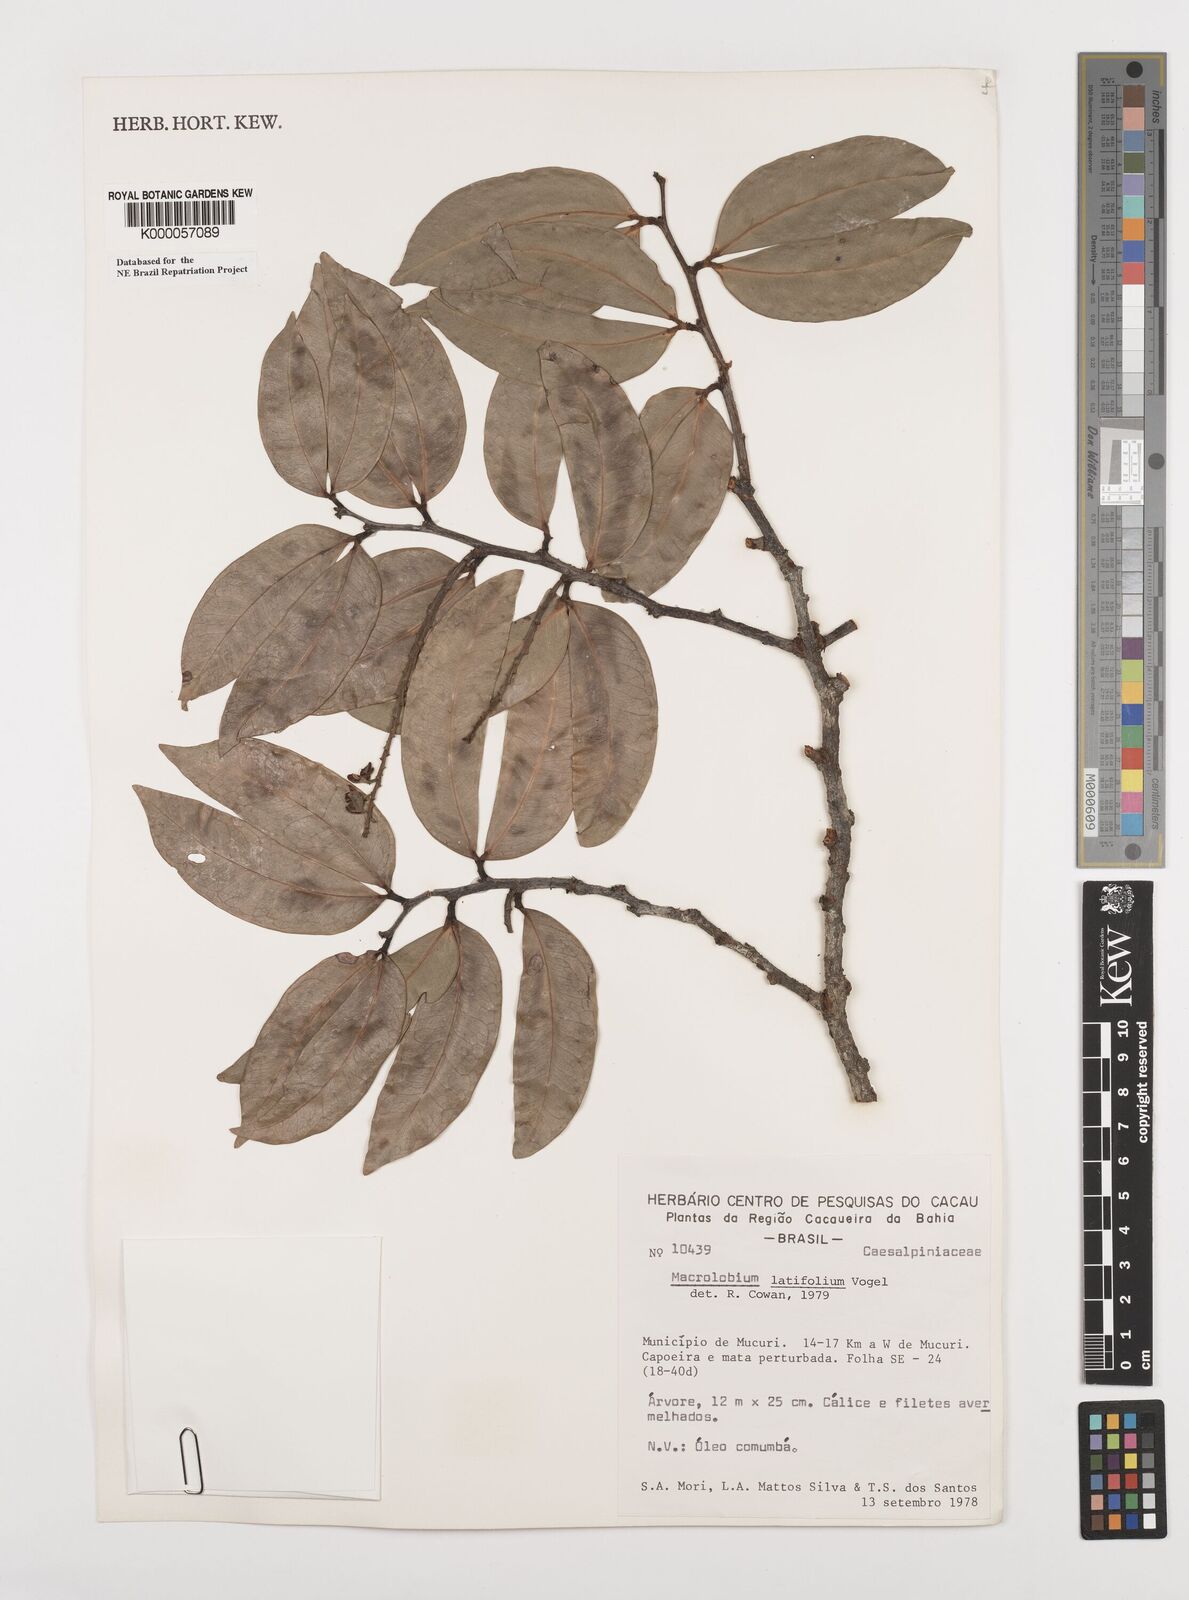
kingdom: Plantae
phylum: Tracheophyta
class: Magnoliopsida
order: Fabales
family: Fabaceae
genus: Macrolobium
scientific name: Macrolobium latifolium
